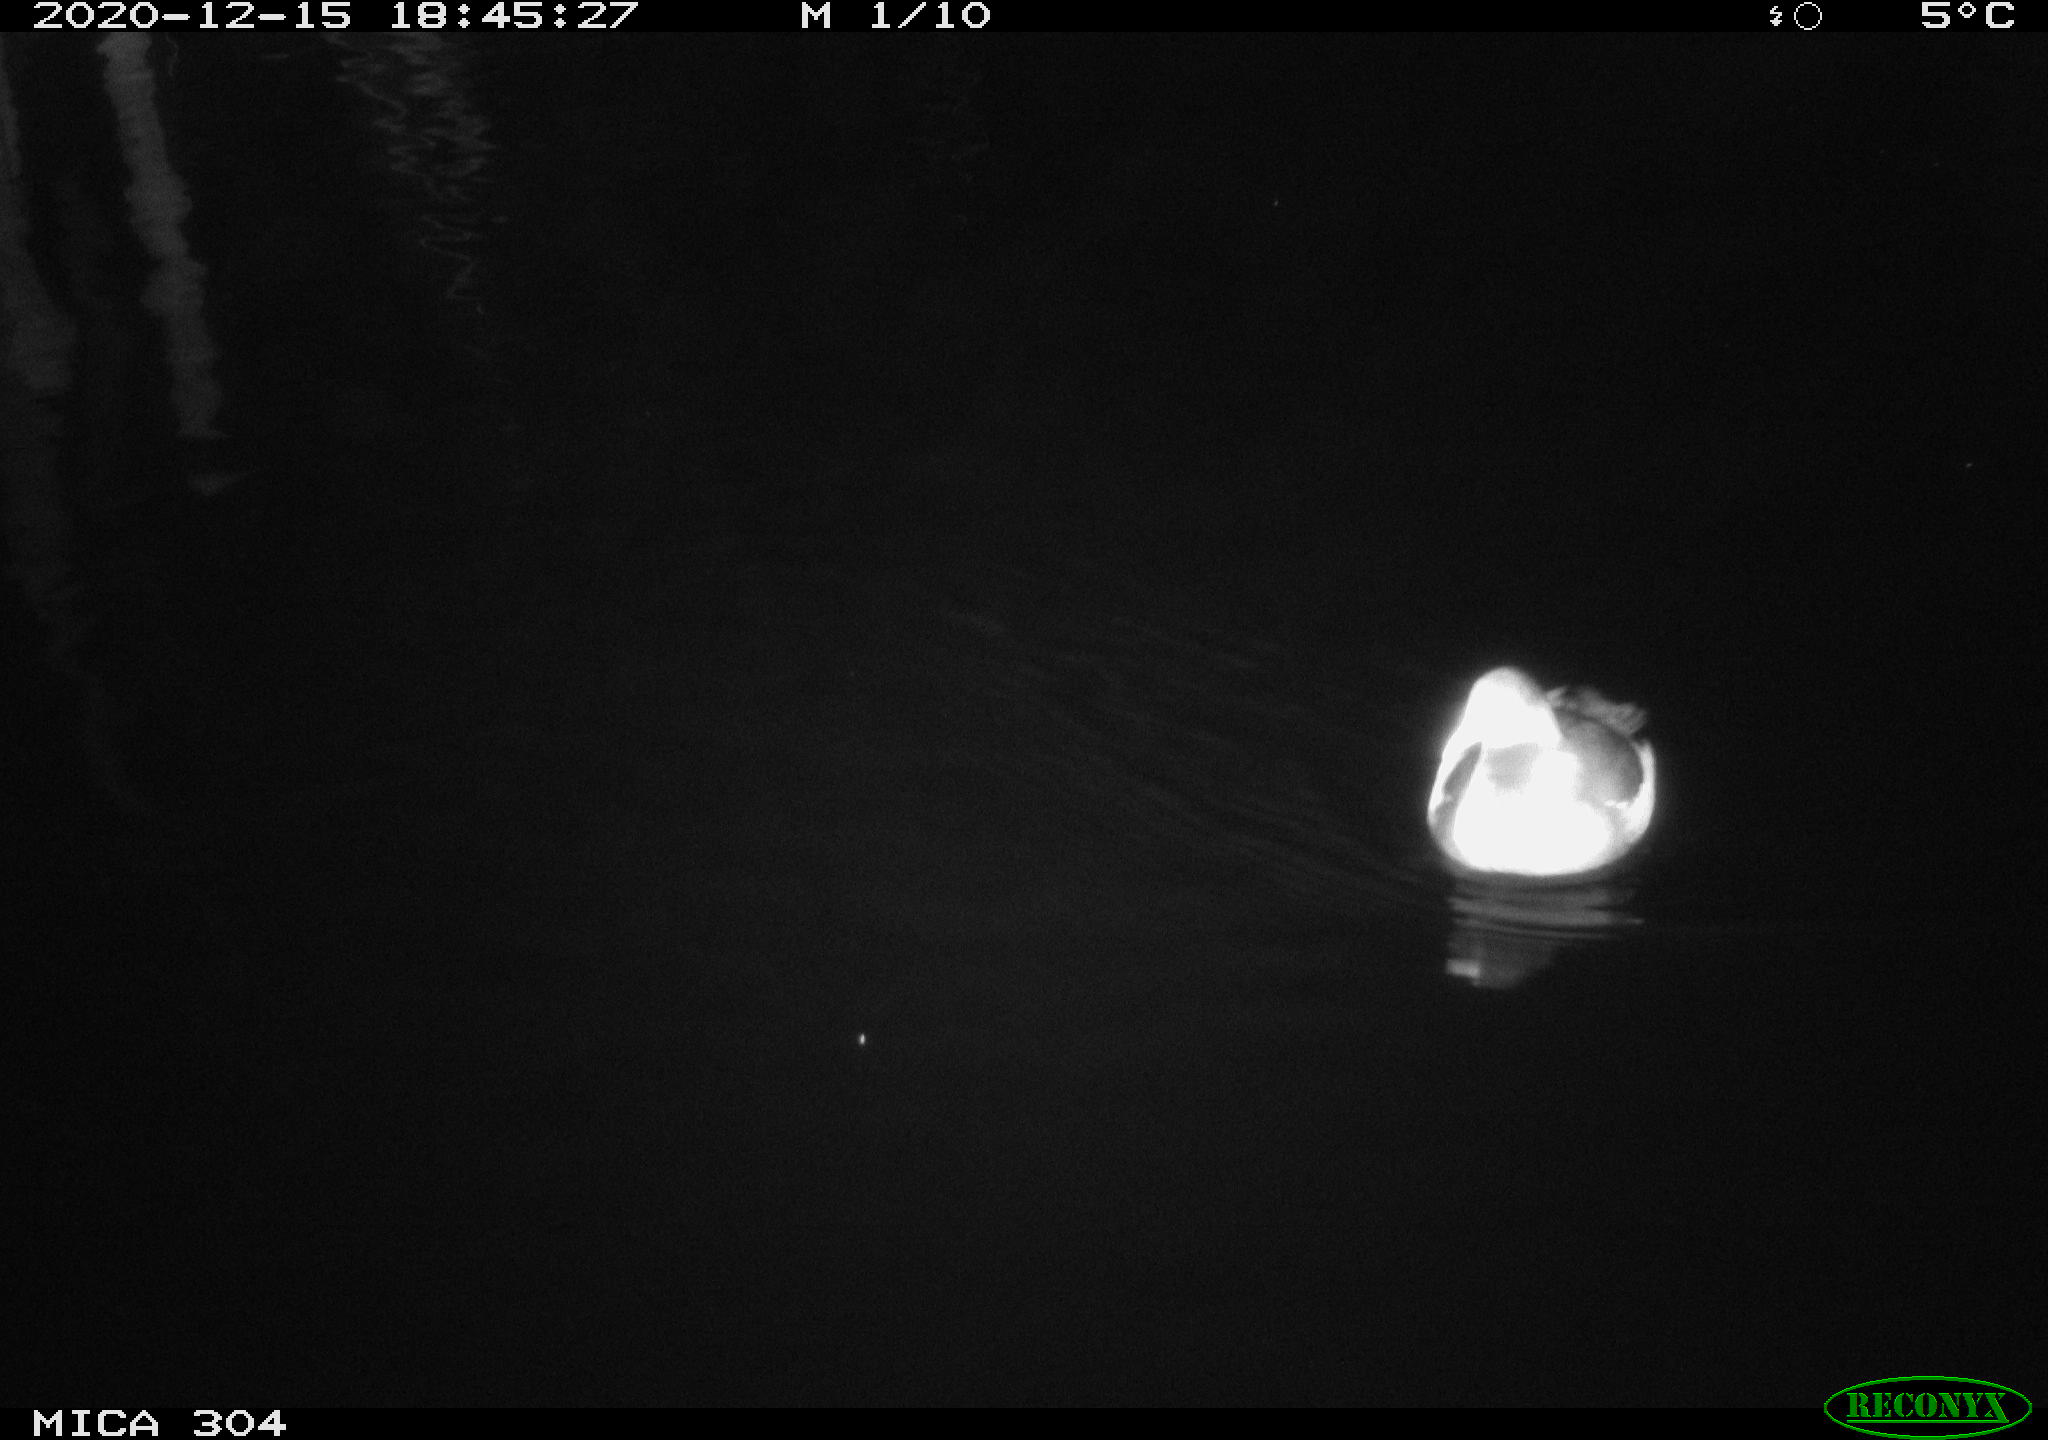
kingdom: Animalia
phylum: Chordata
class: Aves
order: Gruiformes
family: Rallidae
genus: Fulica
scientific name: Fulica atra
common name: Eurasian coot
